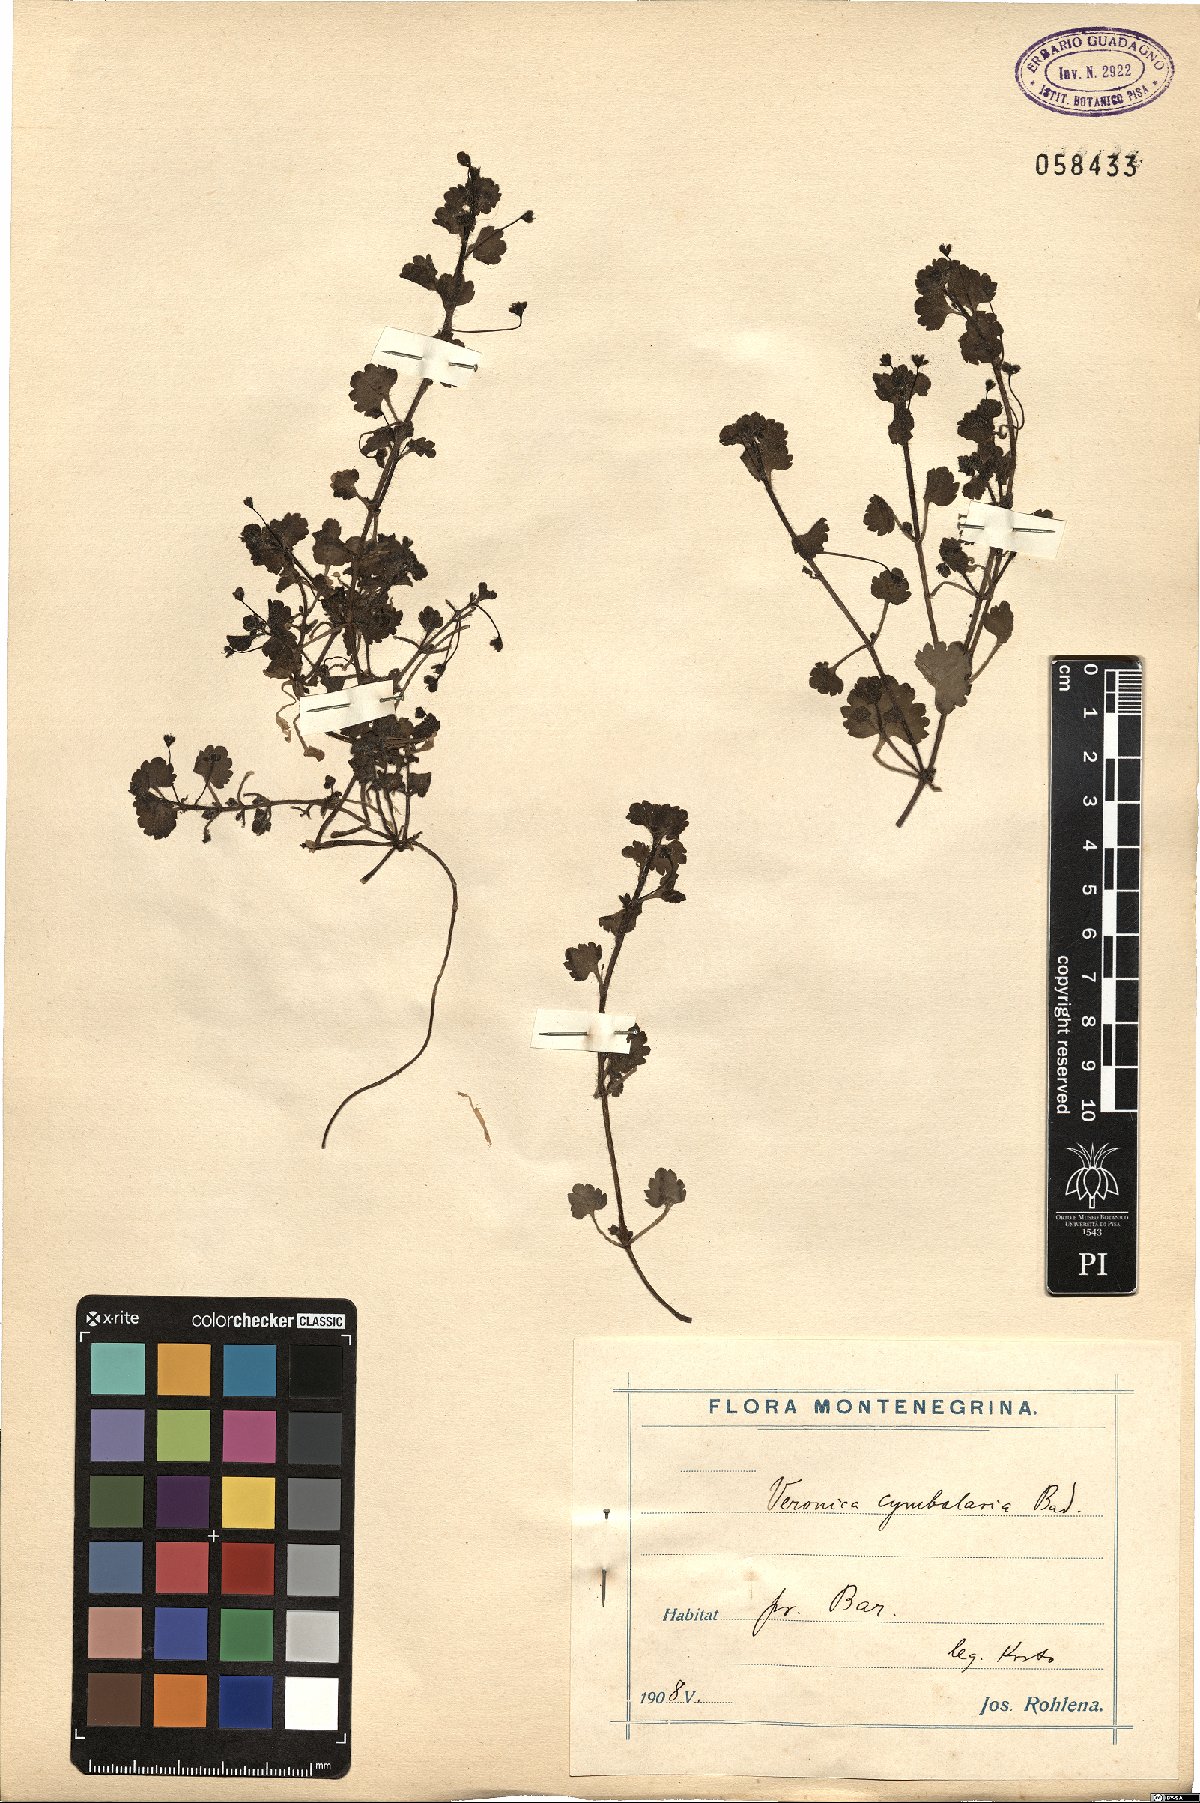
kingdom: Plantae
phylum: Tracheophyta
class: Magnoliopsida
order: Lamiales
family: Plantaginaceae
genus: Veronica
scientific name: Veronica cymbalaria
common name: Pale speedwell
